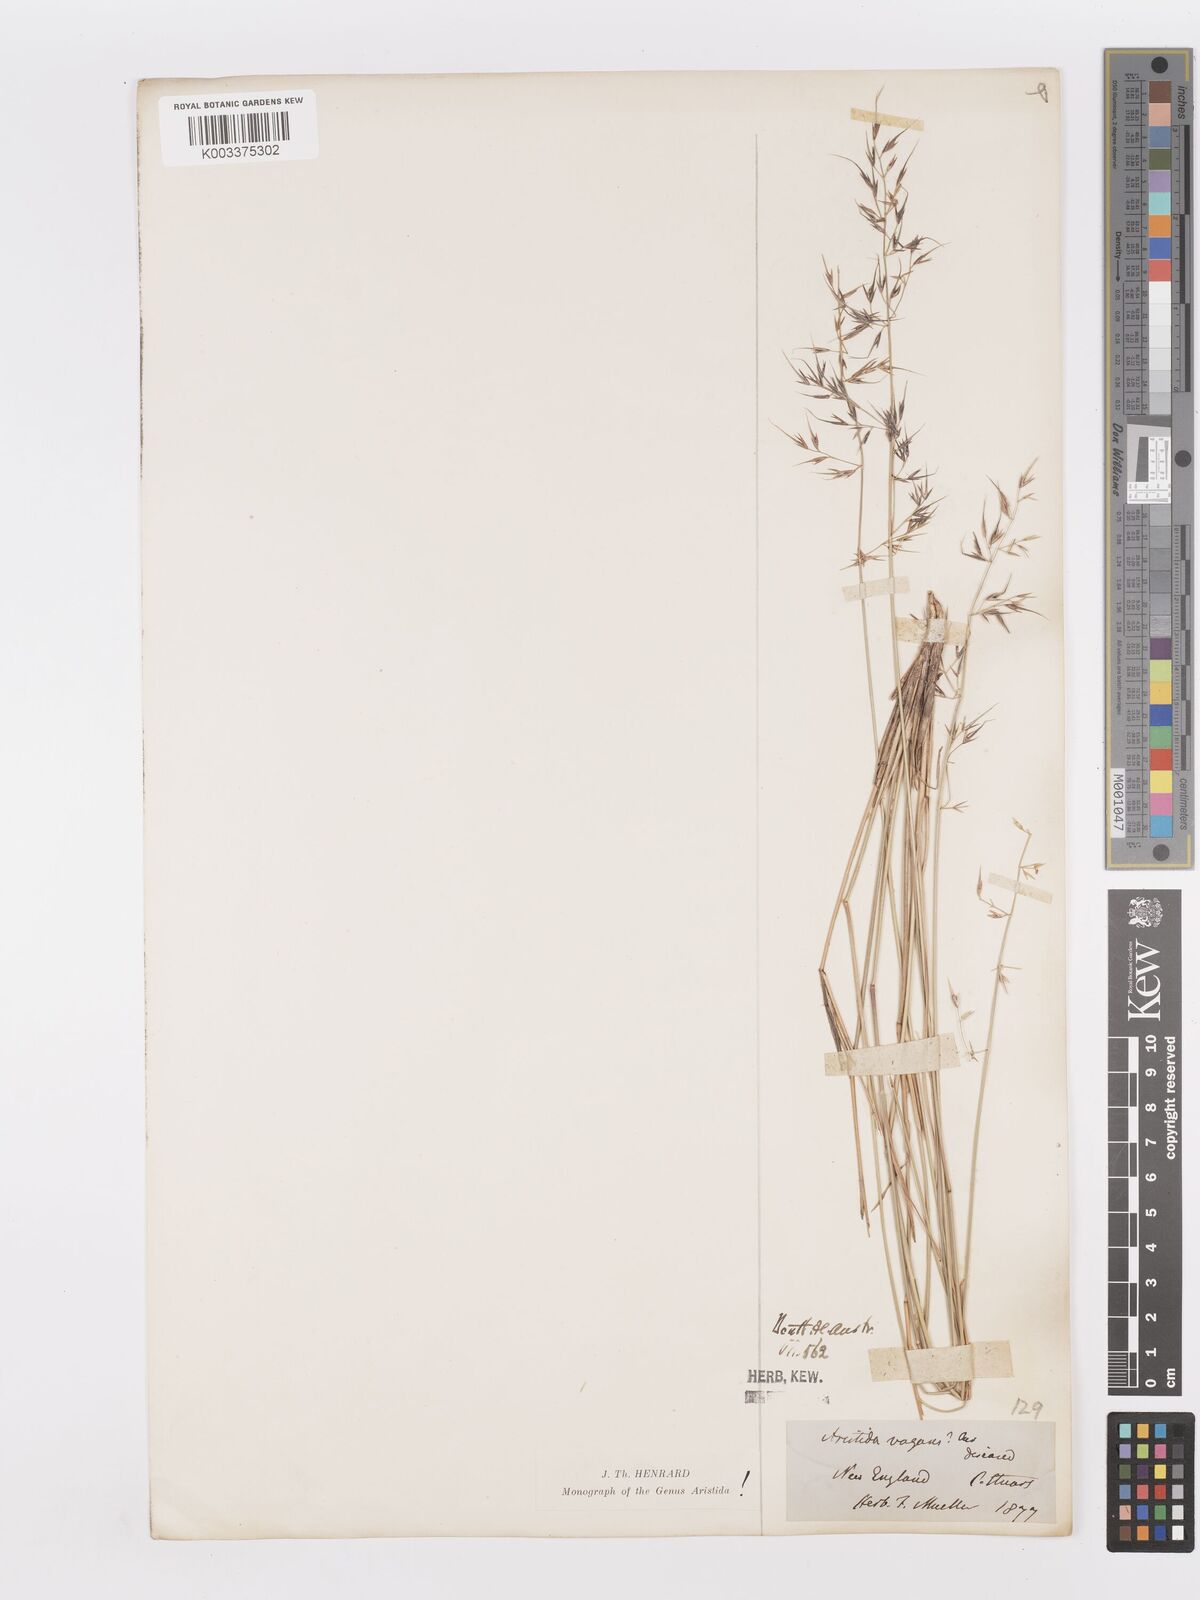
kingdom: Plantae
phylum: Tracheophyta
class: Liliopsida
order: Poales
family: Poaceae
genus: Aristida
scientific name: Aristida vagans
